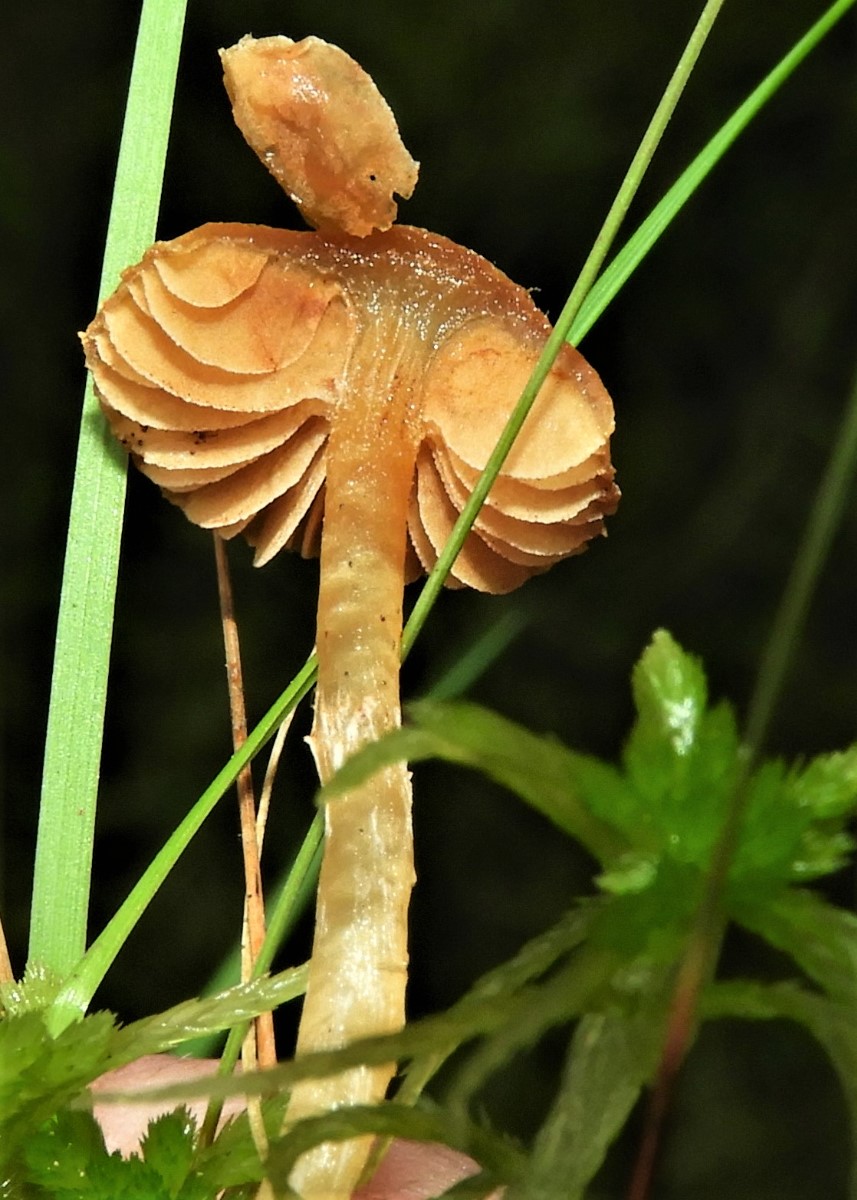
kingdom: Fungi
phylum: Basidiomycota
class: Agaricomycetes
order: Agaricales
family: Hymenogastraceae
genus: Galerina
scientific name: Galerina paludosa
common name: mose-hjelmhat
